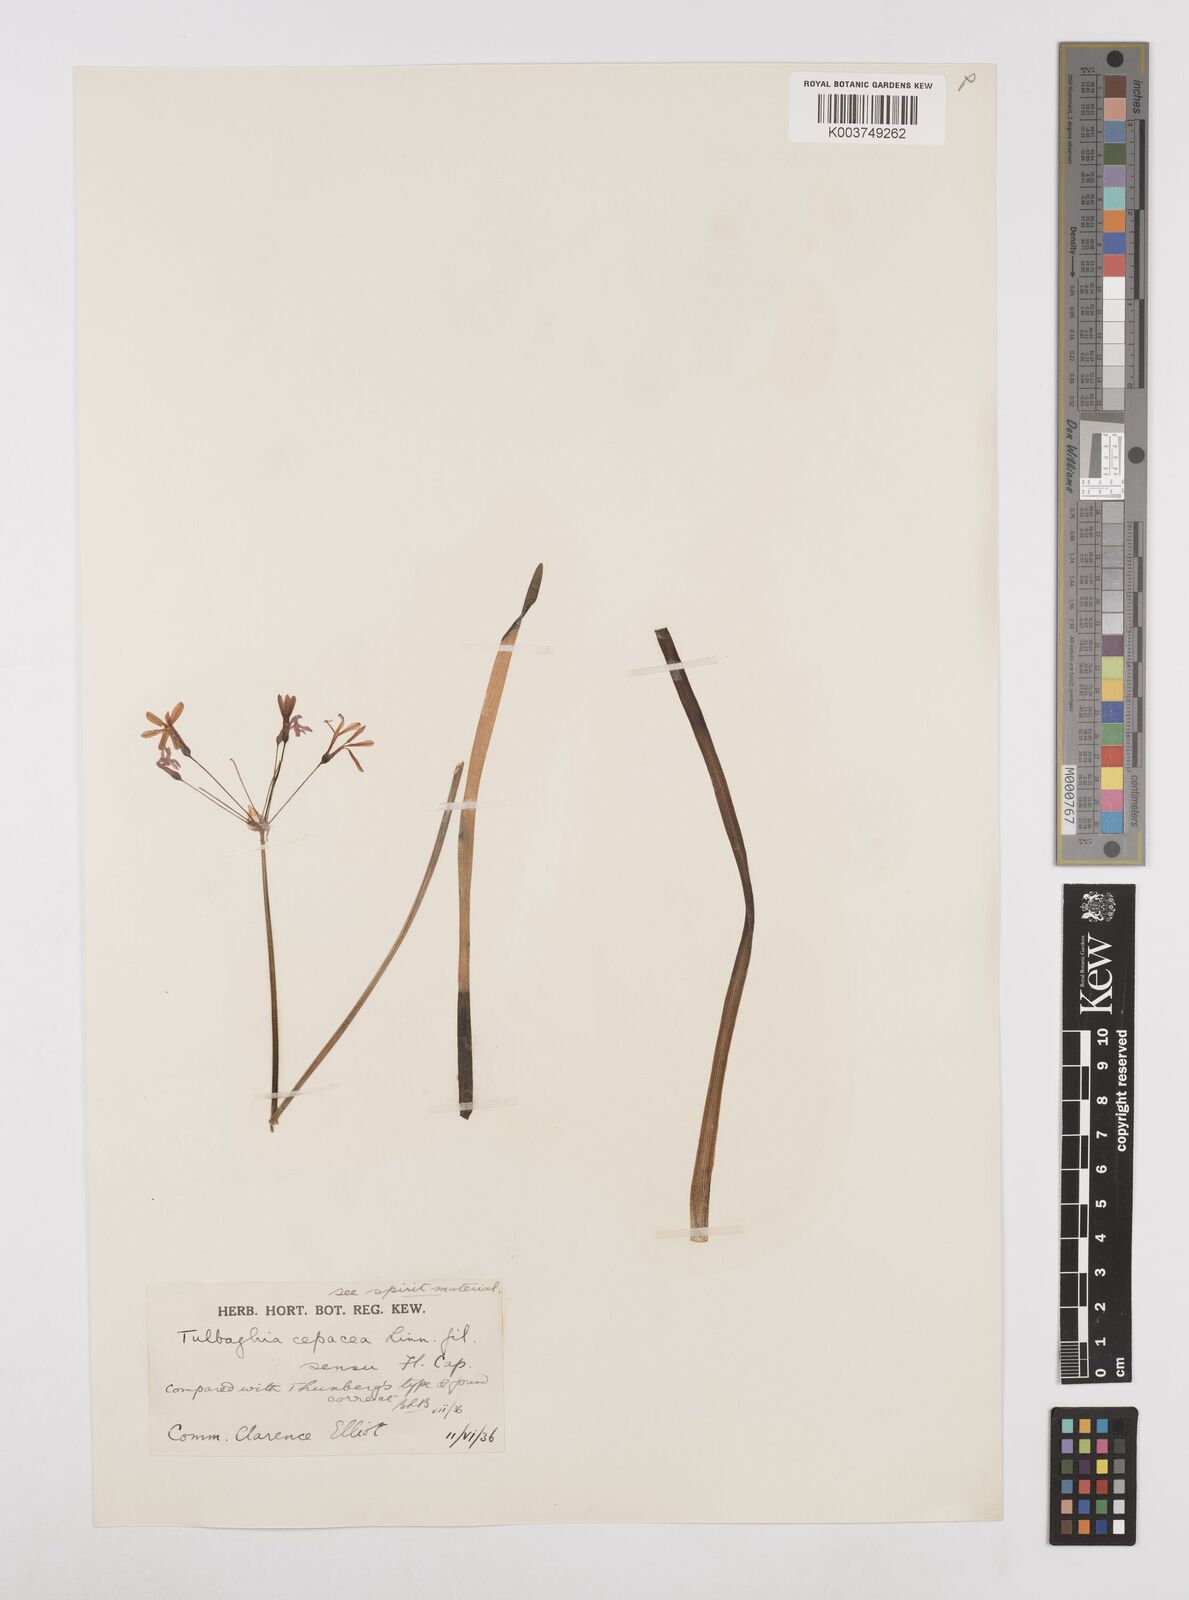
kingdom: Plantae
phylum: Tracheophyta
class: Liliopsida
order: Asparagales
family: Amaryllidaceae
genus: Tulbaghia
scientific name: Tulbaghia violacea
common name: Society garlic
